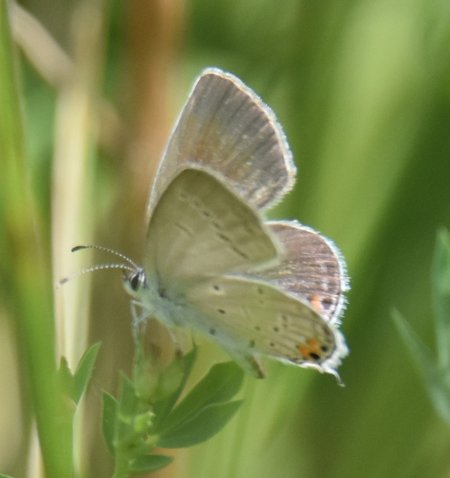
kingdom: Animalia
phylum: Arthropoda
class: Insecta
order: Lepidoptera
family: Lycaenidae
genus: Elkalyce
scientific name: Elkalyce comyntas
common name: Eastern Tailed-Blue
